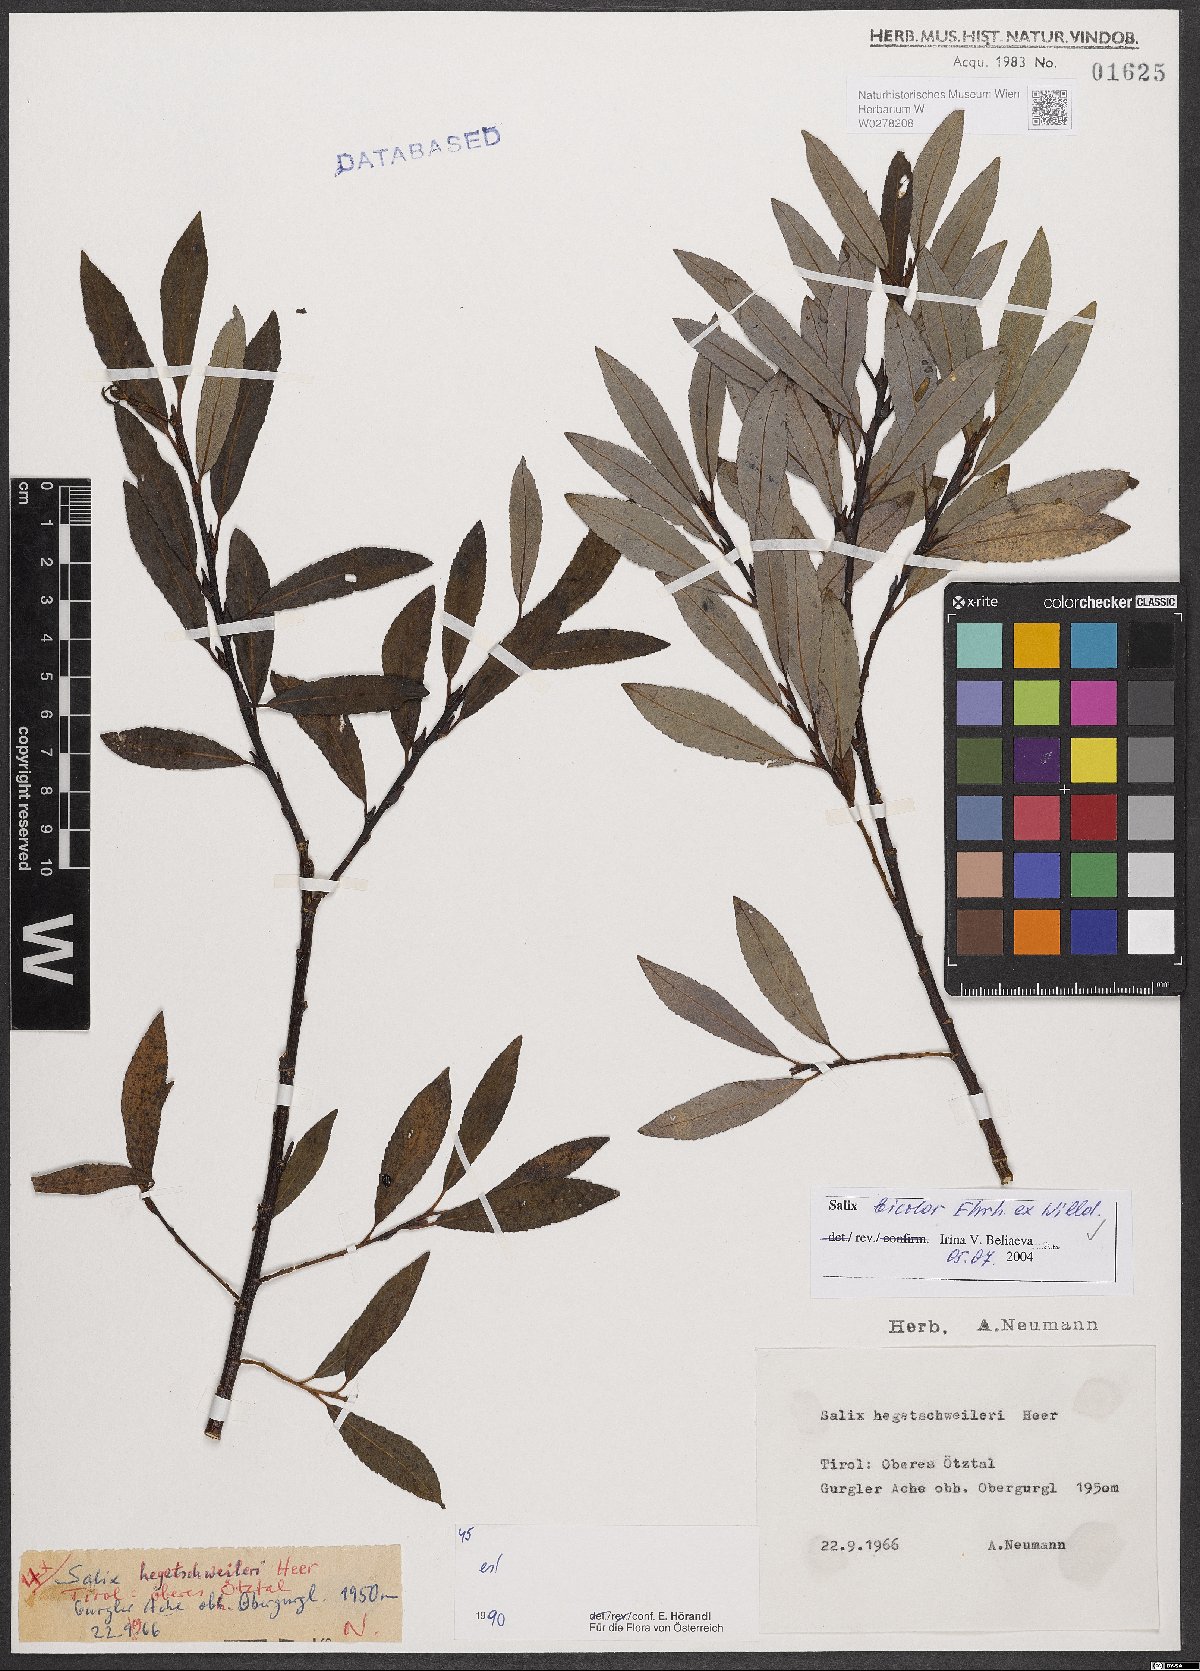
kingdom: Plantae
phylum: Tracheophyta
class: Magnoliopsida
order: Malpighiales
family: Salicaceae
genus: Salix
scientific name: Salix bicolor
